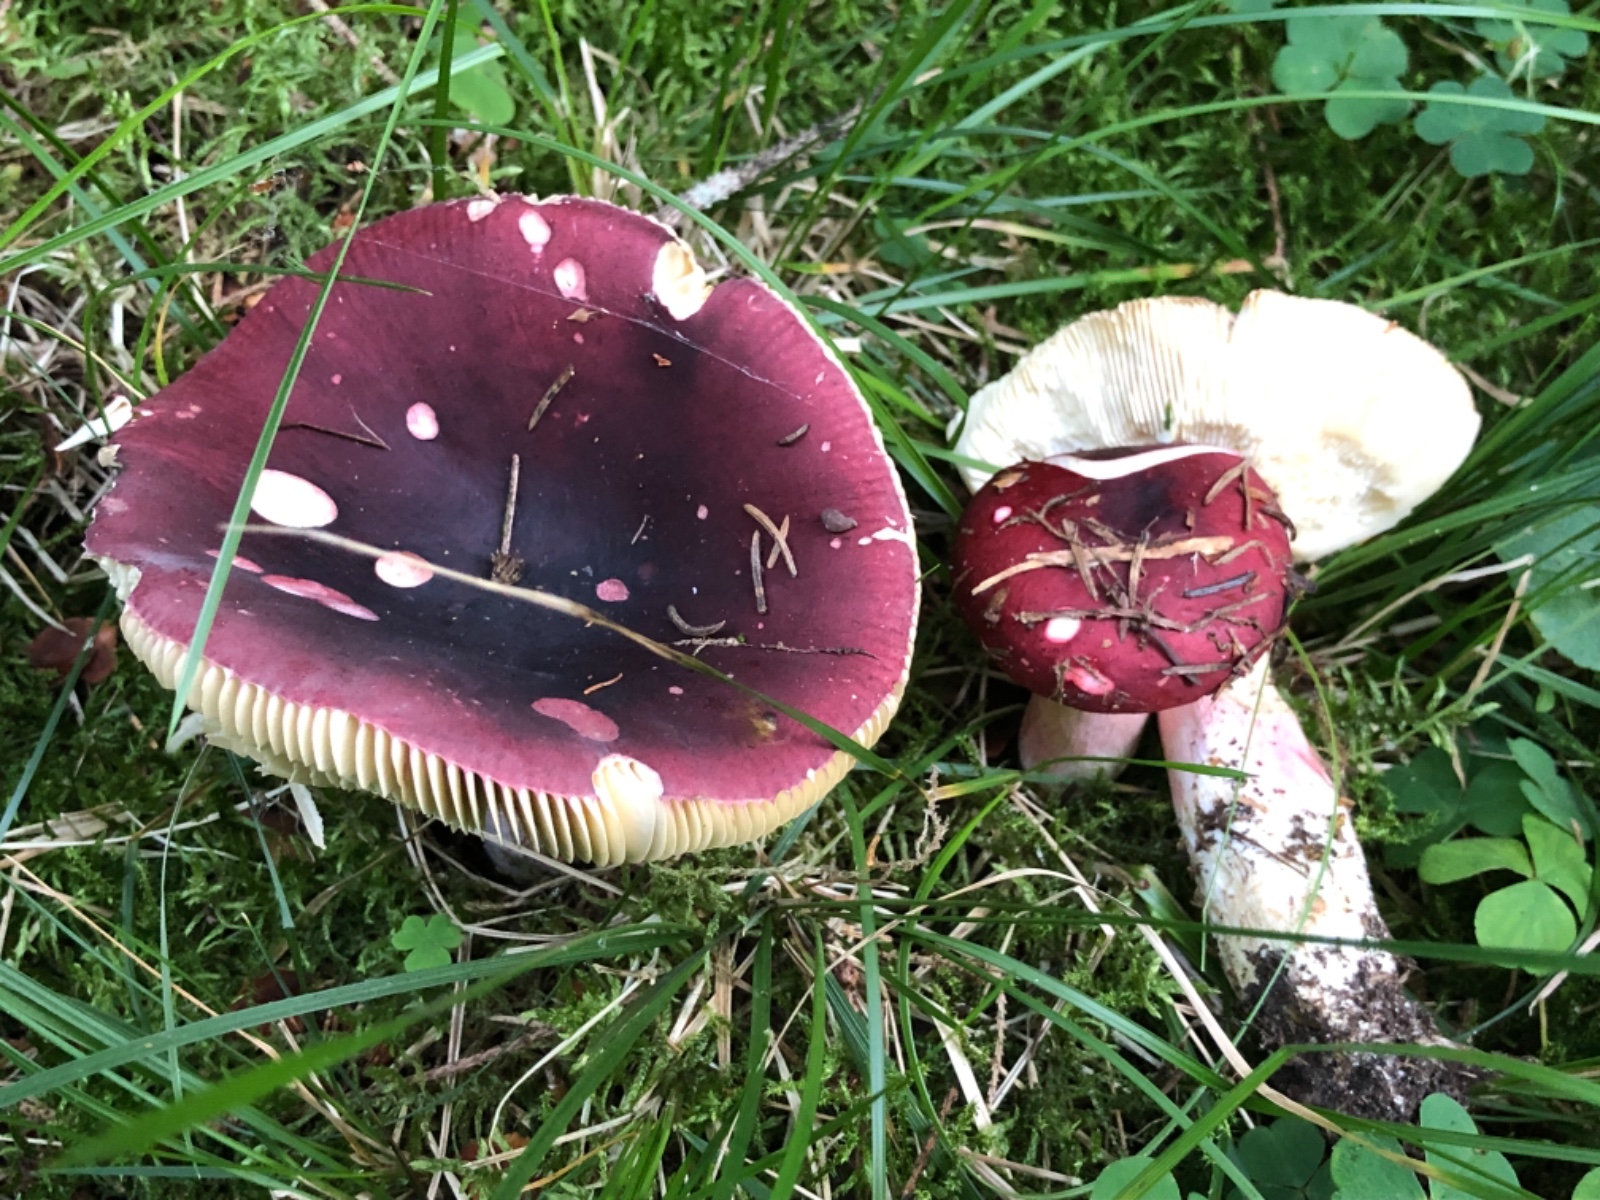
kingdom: Fungi
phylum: Basidiomycota
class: Agaricomycetes
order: Russulales
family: Russulaceae
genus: Russula
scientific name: Russula xerampelina
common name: hummer-skørhat
